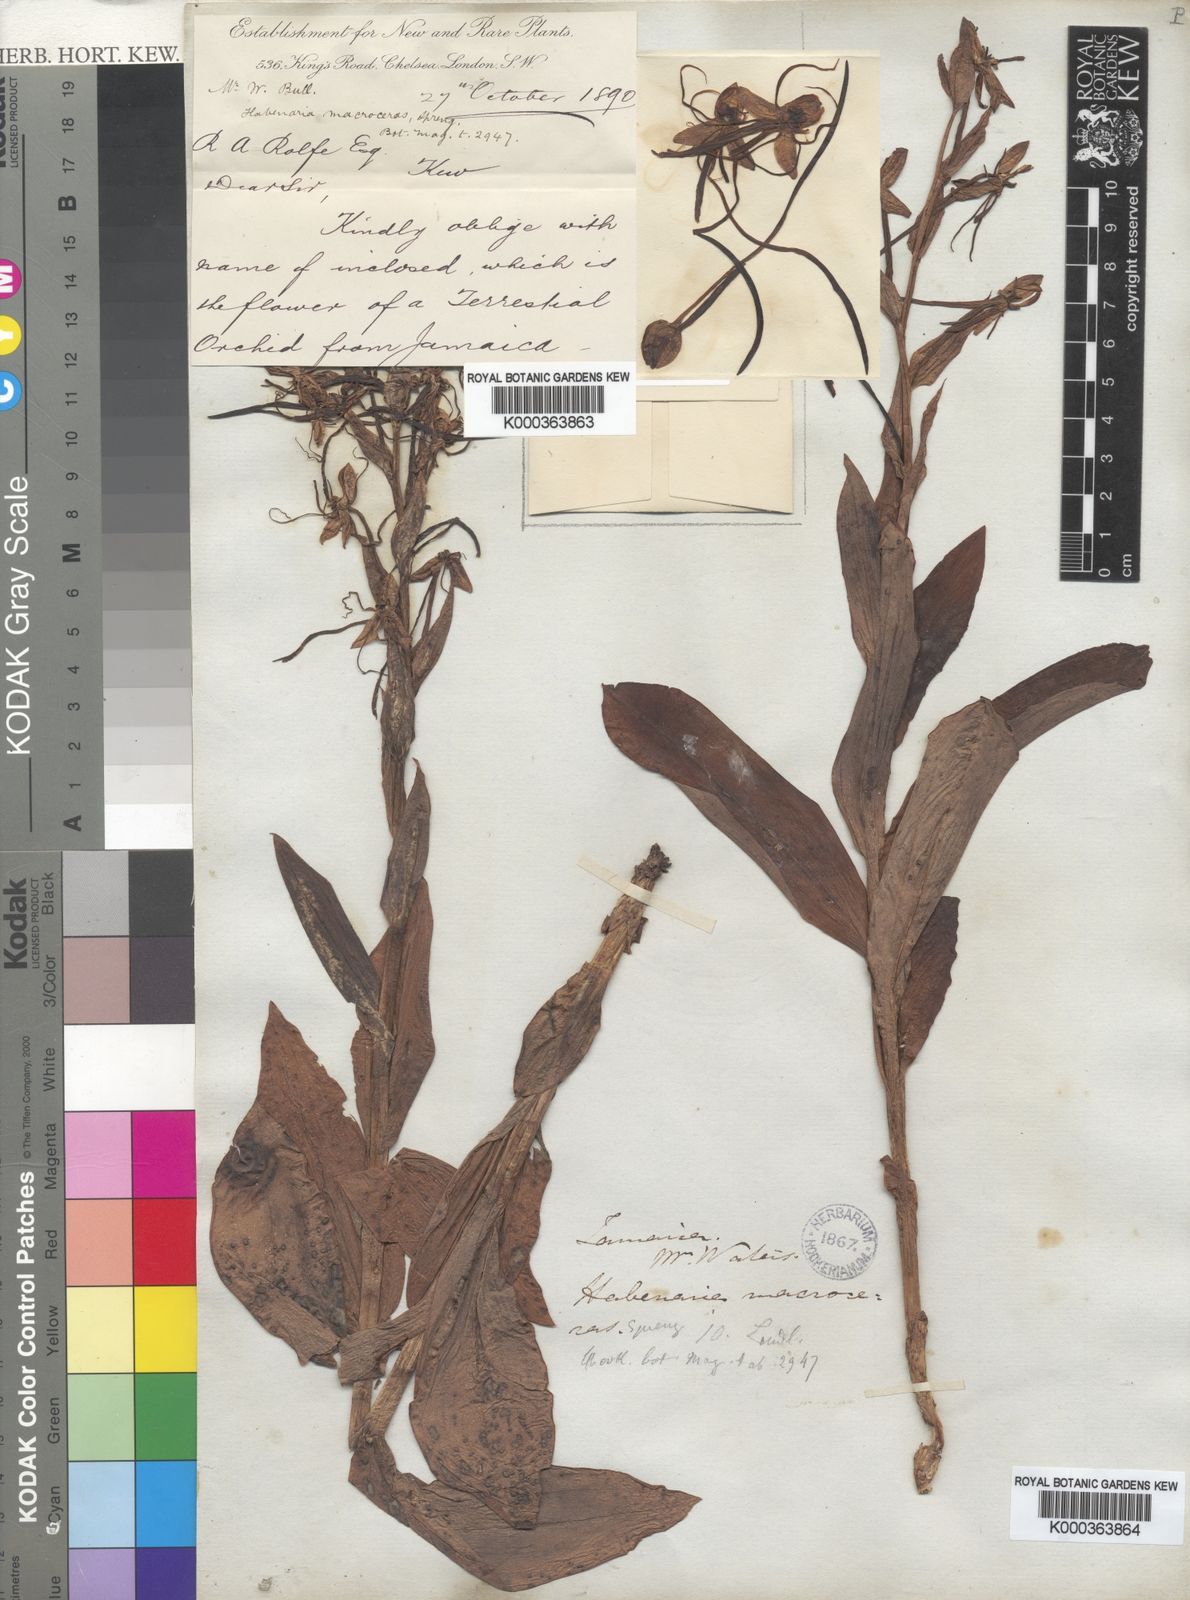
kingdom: Plantae
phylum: Tracheophyta
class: Liliopsida
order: Asparagales
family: Orchidaceae
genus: Habenaria
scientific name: Habenaria
